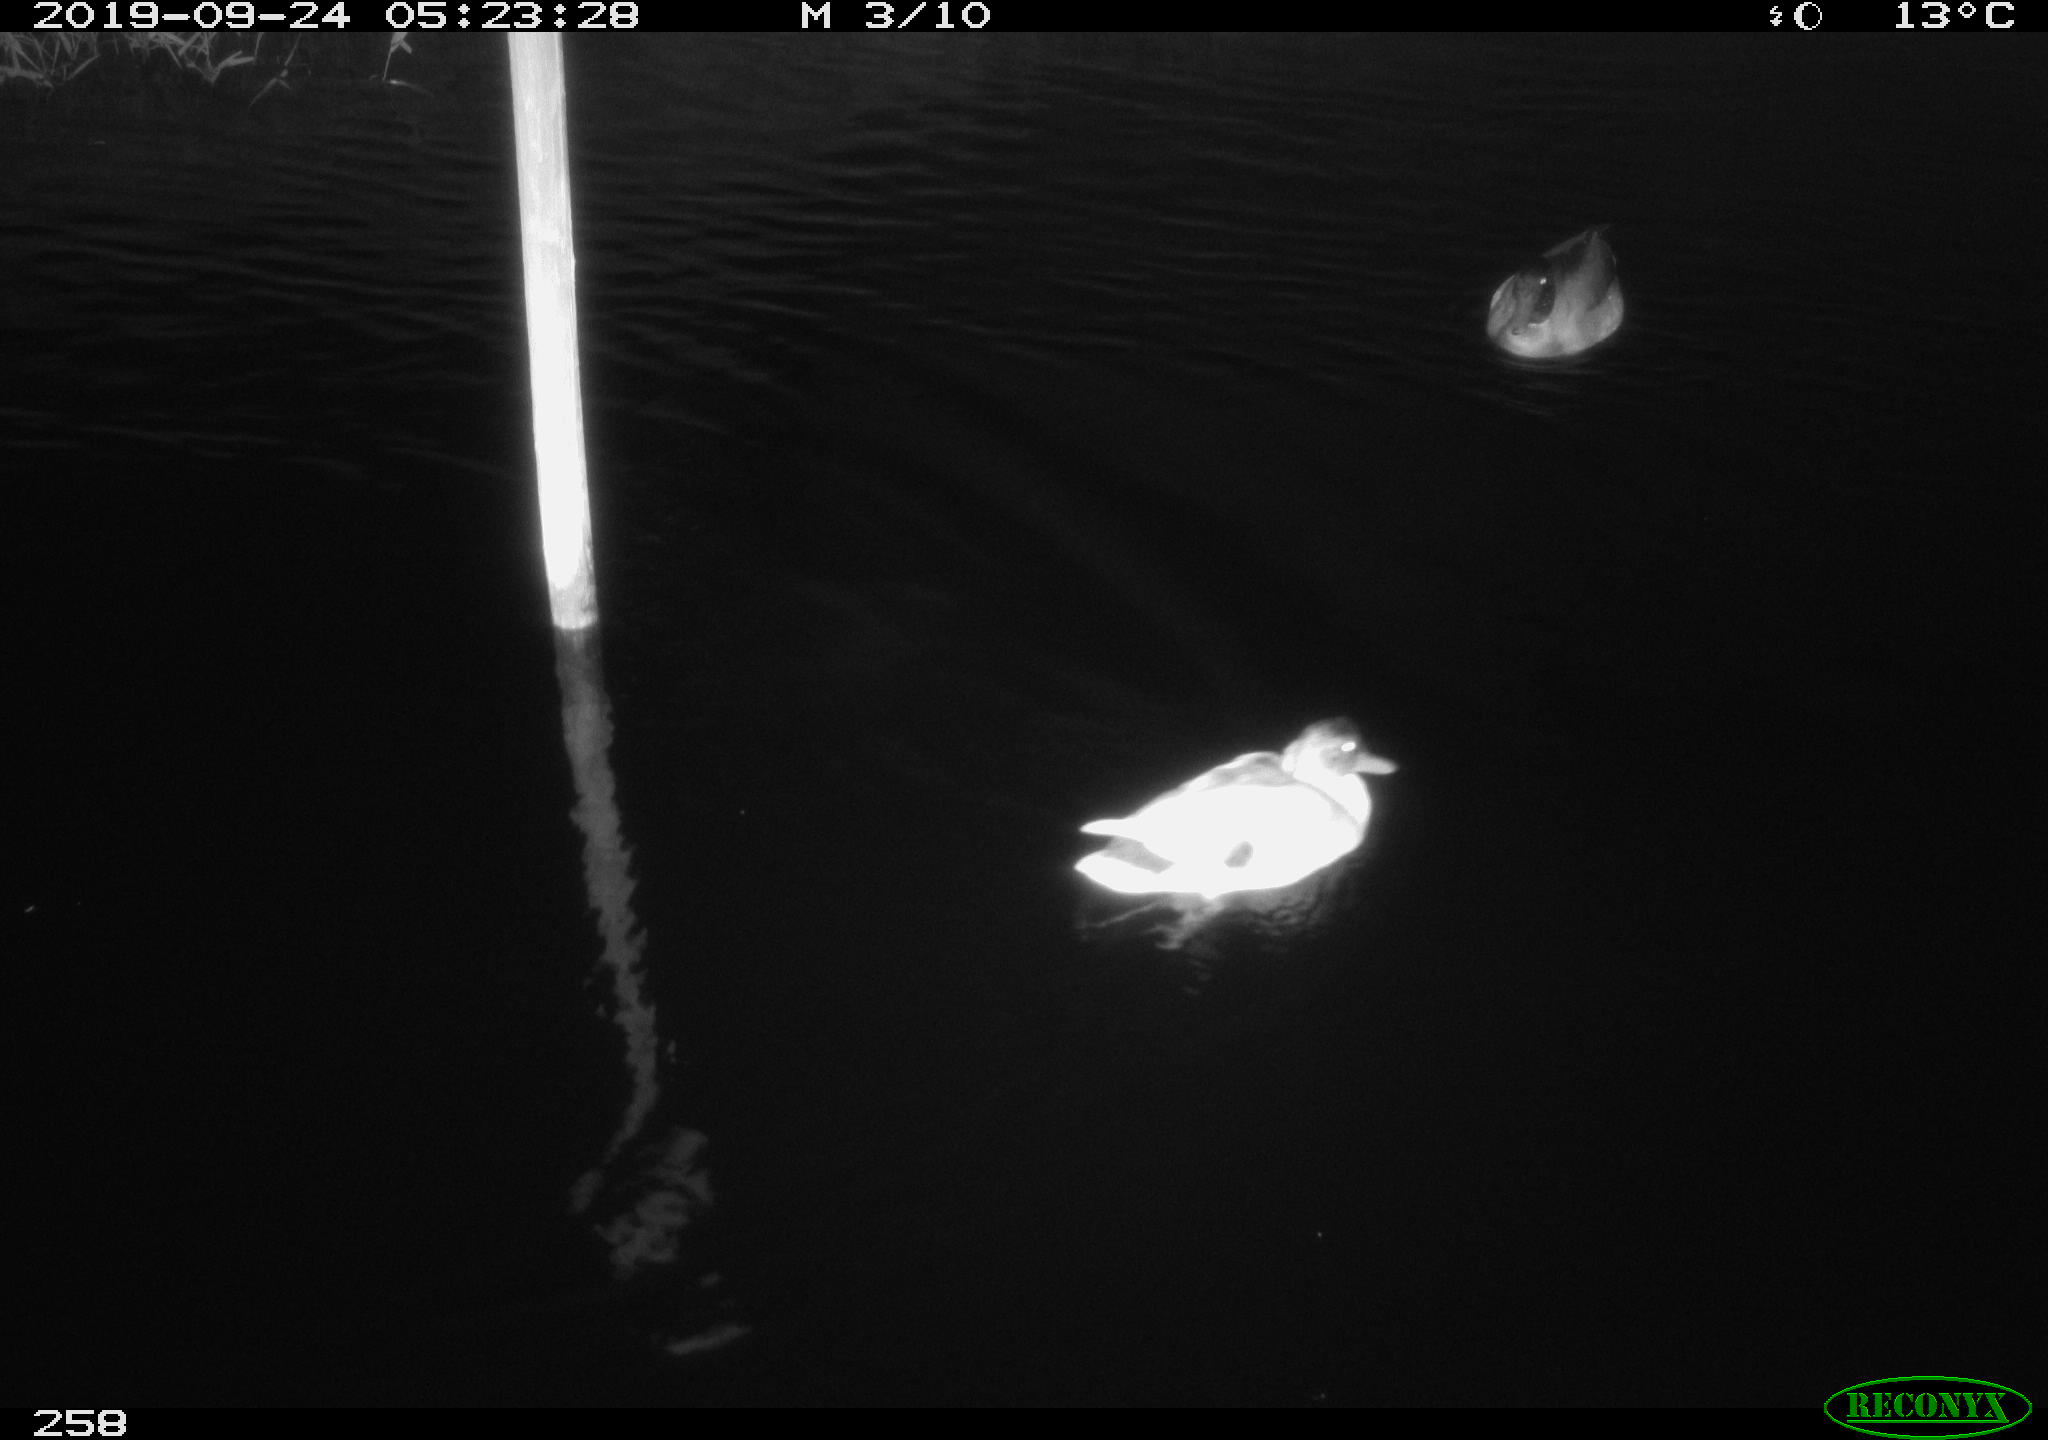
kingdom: Animalia
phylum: Chordata
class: Aves
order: Anseriformes
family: Anatidae
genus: Anas
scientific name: Anas platyrhynchos
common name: Mallard
